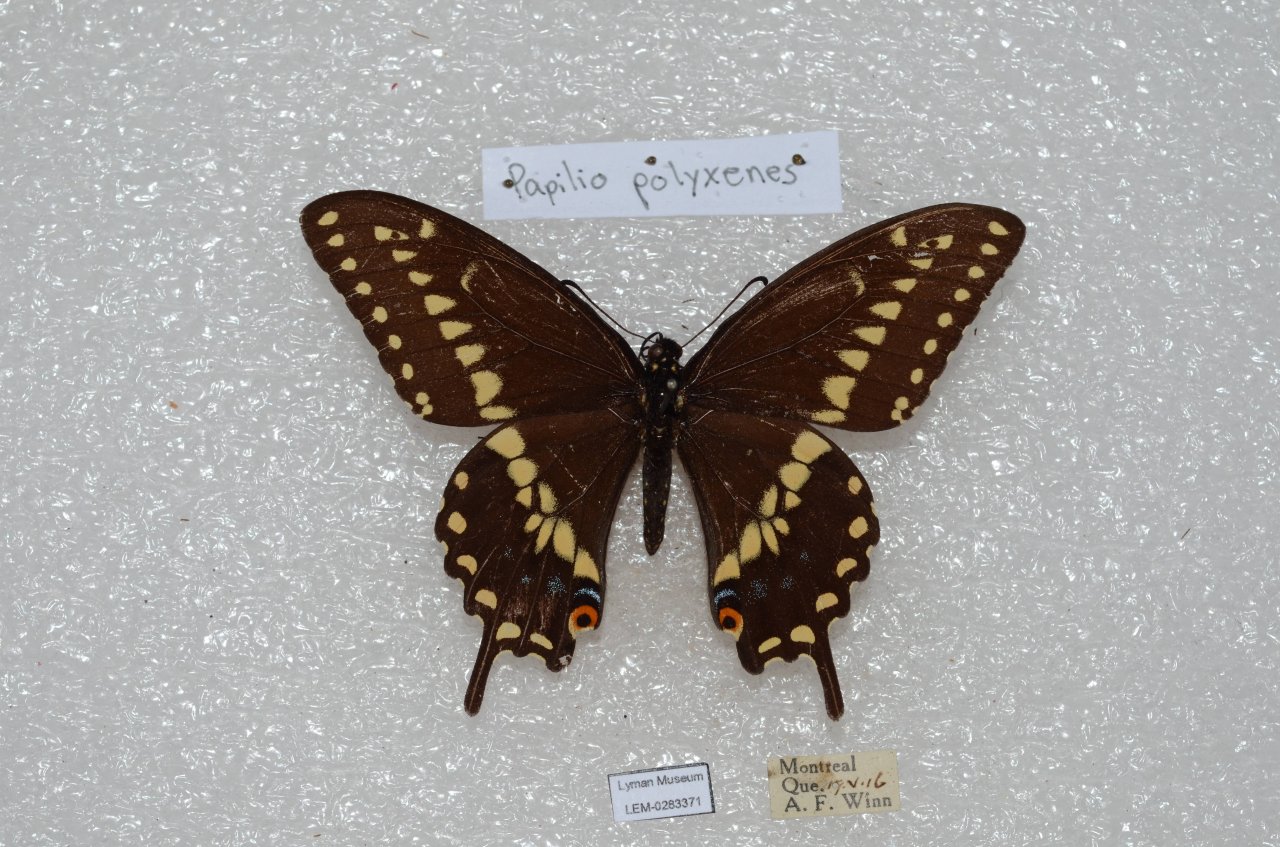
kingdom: Animalia
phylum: Arthropoda
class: Insecta
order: Lepidoptera
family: Papilionidae
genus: Papilio
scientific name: Papilio polyxenes
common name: Black Swallowtail
